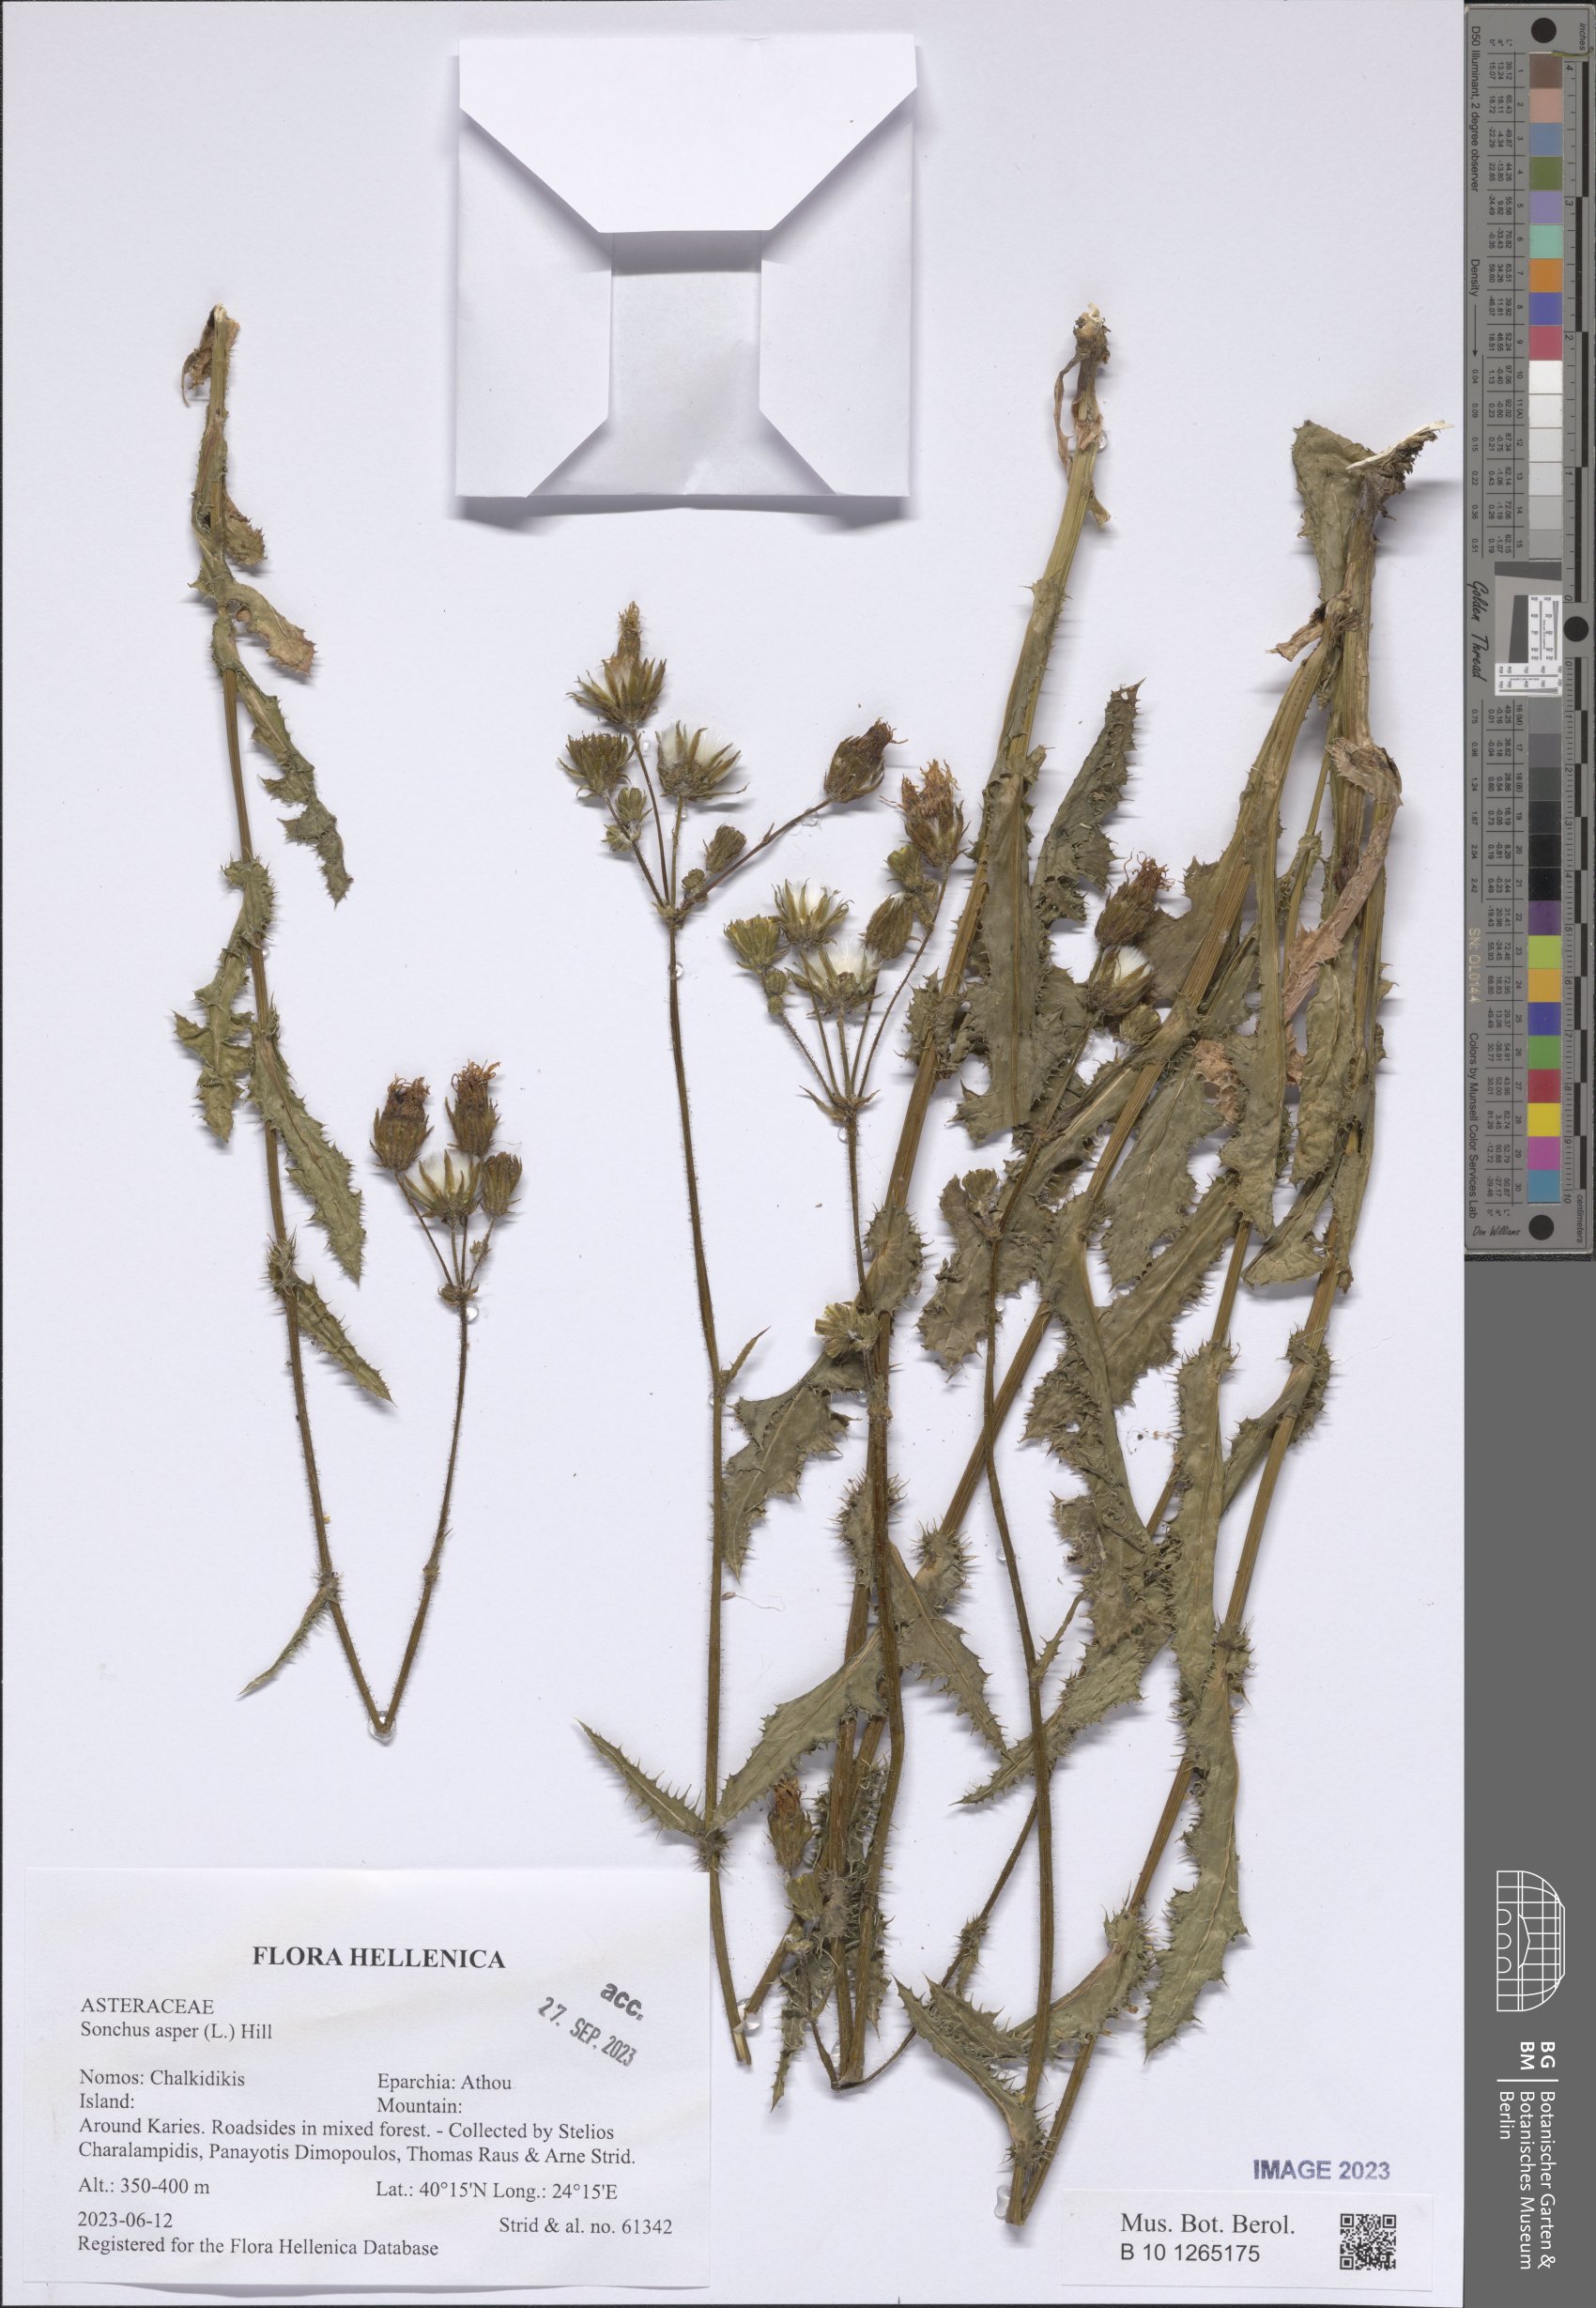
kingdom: Plantae
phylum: Tracheophyta
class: Magnoliopsida
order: Asterales
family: Asteraceae
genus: Sonchus
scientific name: Sonchus asper
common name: Prickly sow-thistle
